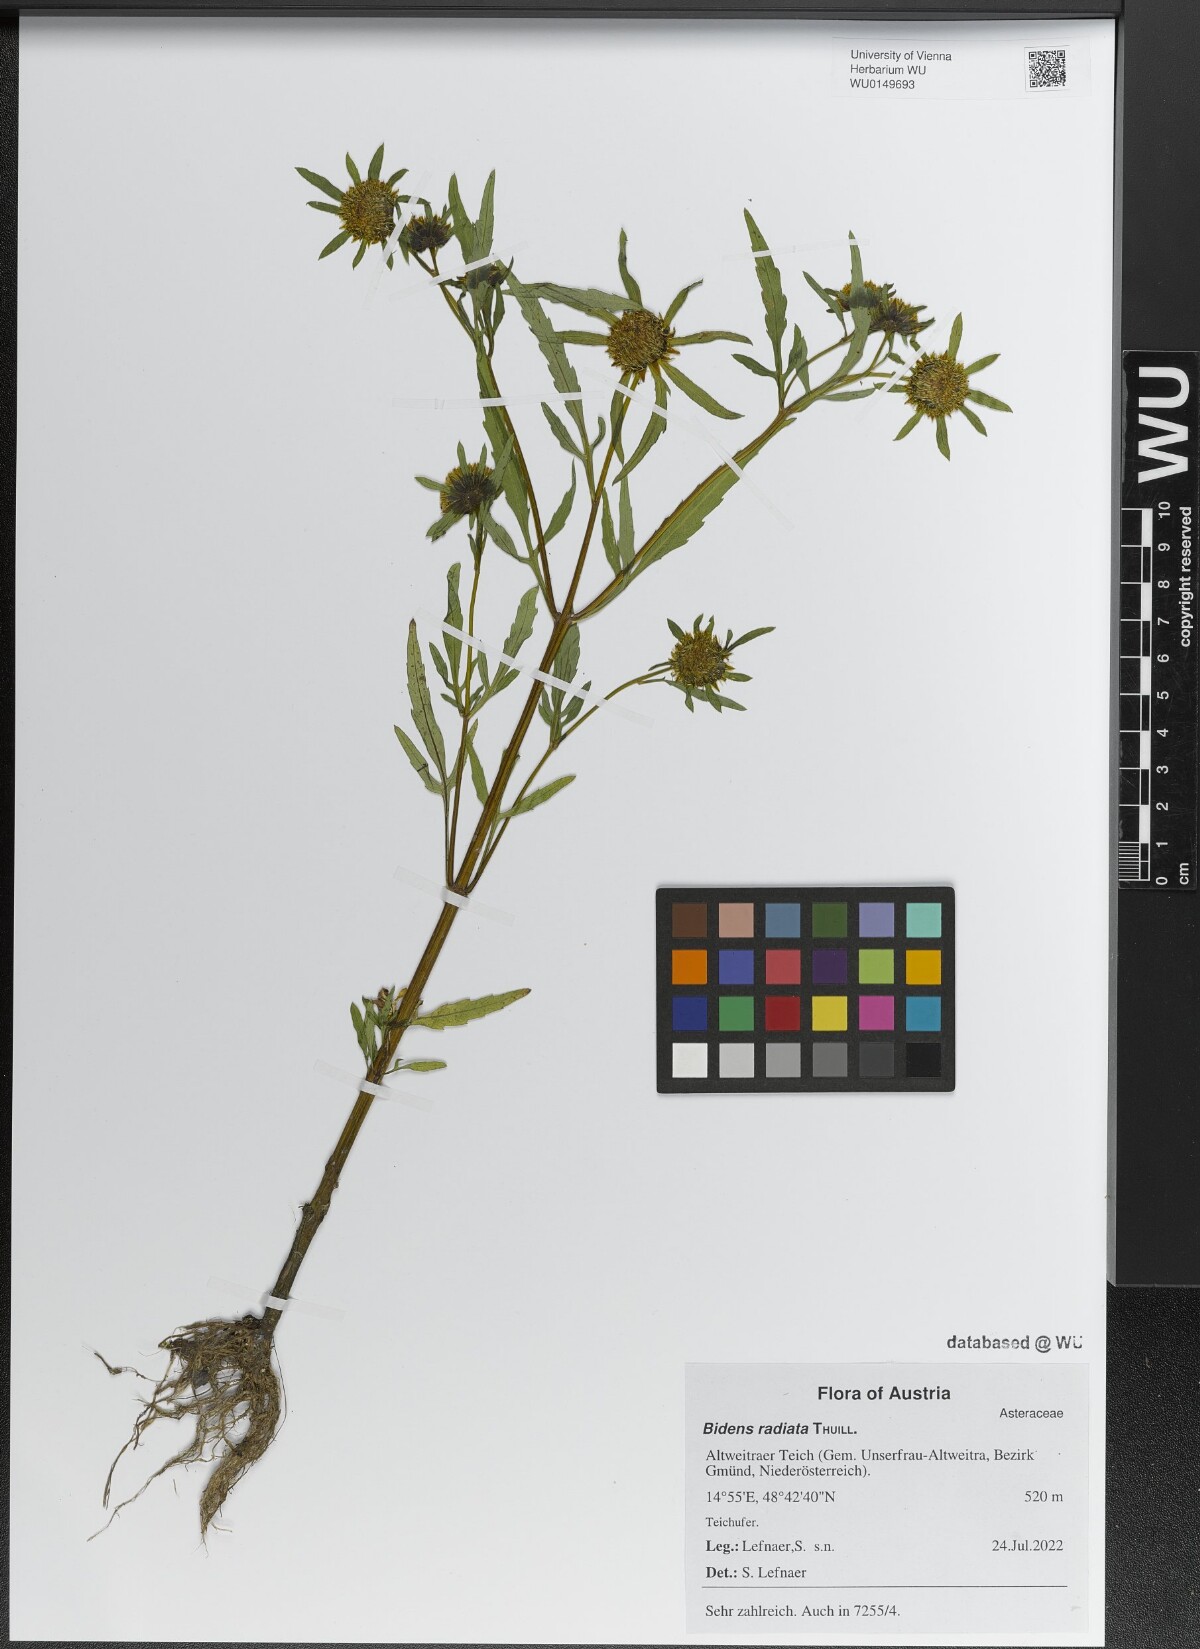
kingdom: Plantae
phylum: Tracheophyta
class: Magnoliopsida
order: Asterales
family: Asteraceae
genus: Bidens
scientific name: Bidens radiata
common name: Radiating bur-marigold
